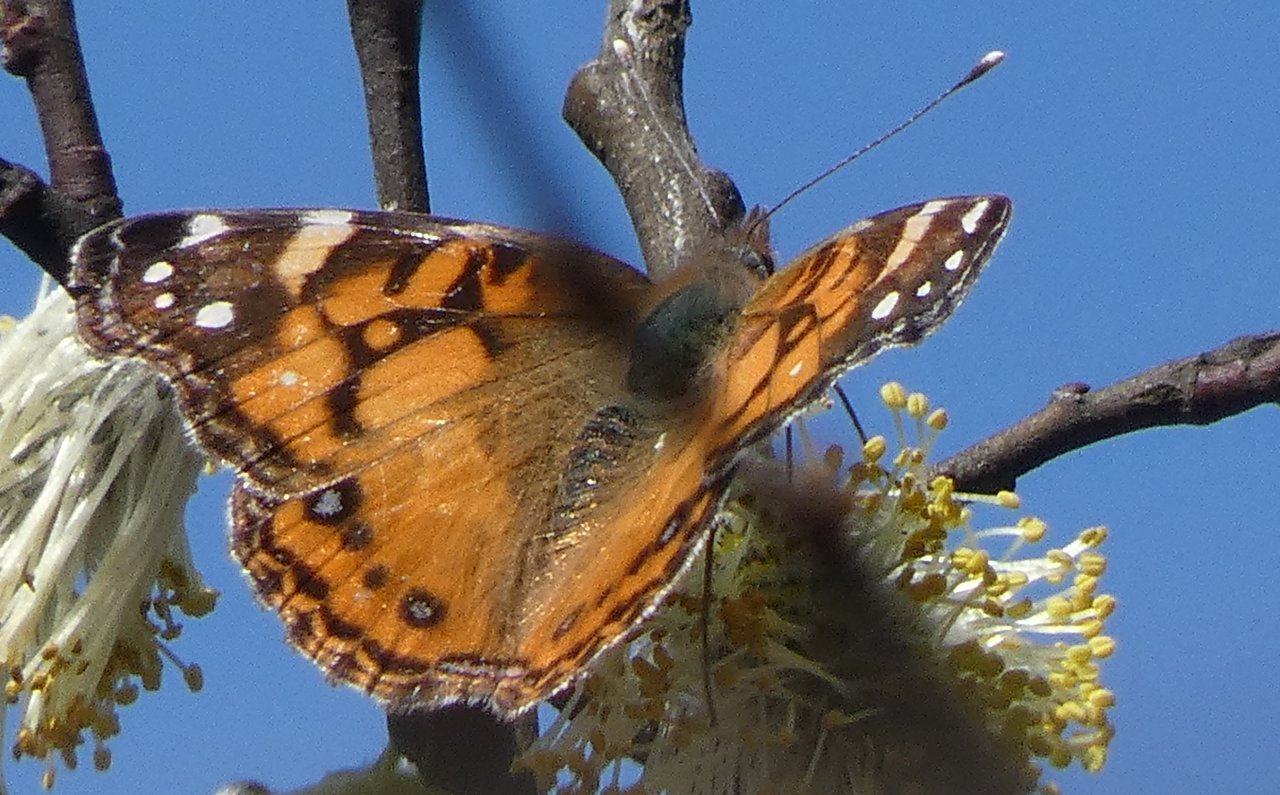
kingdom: Animalia
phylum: Arthropoda
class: Insecta
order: Lepidoptera
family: Nymphalidae
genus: Vanessa
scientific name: Vanessa virginiensis
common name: American Lady
